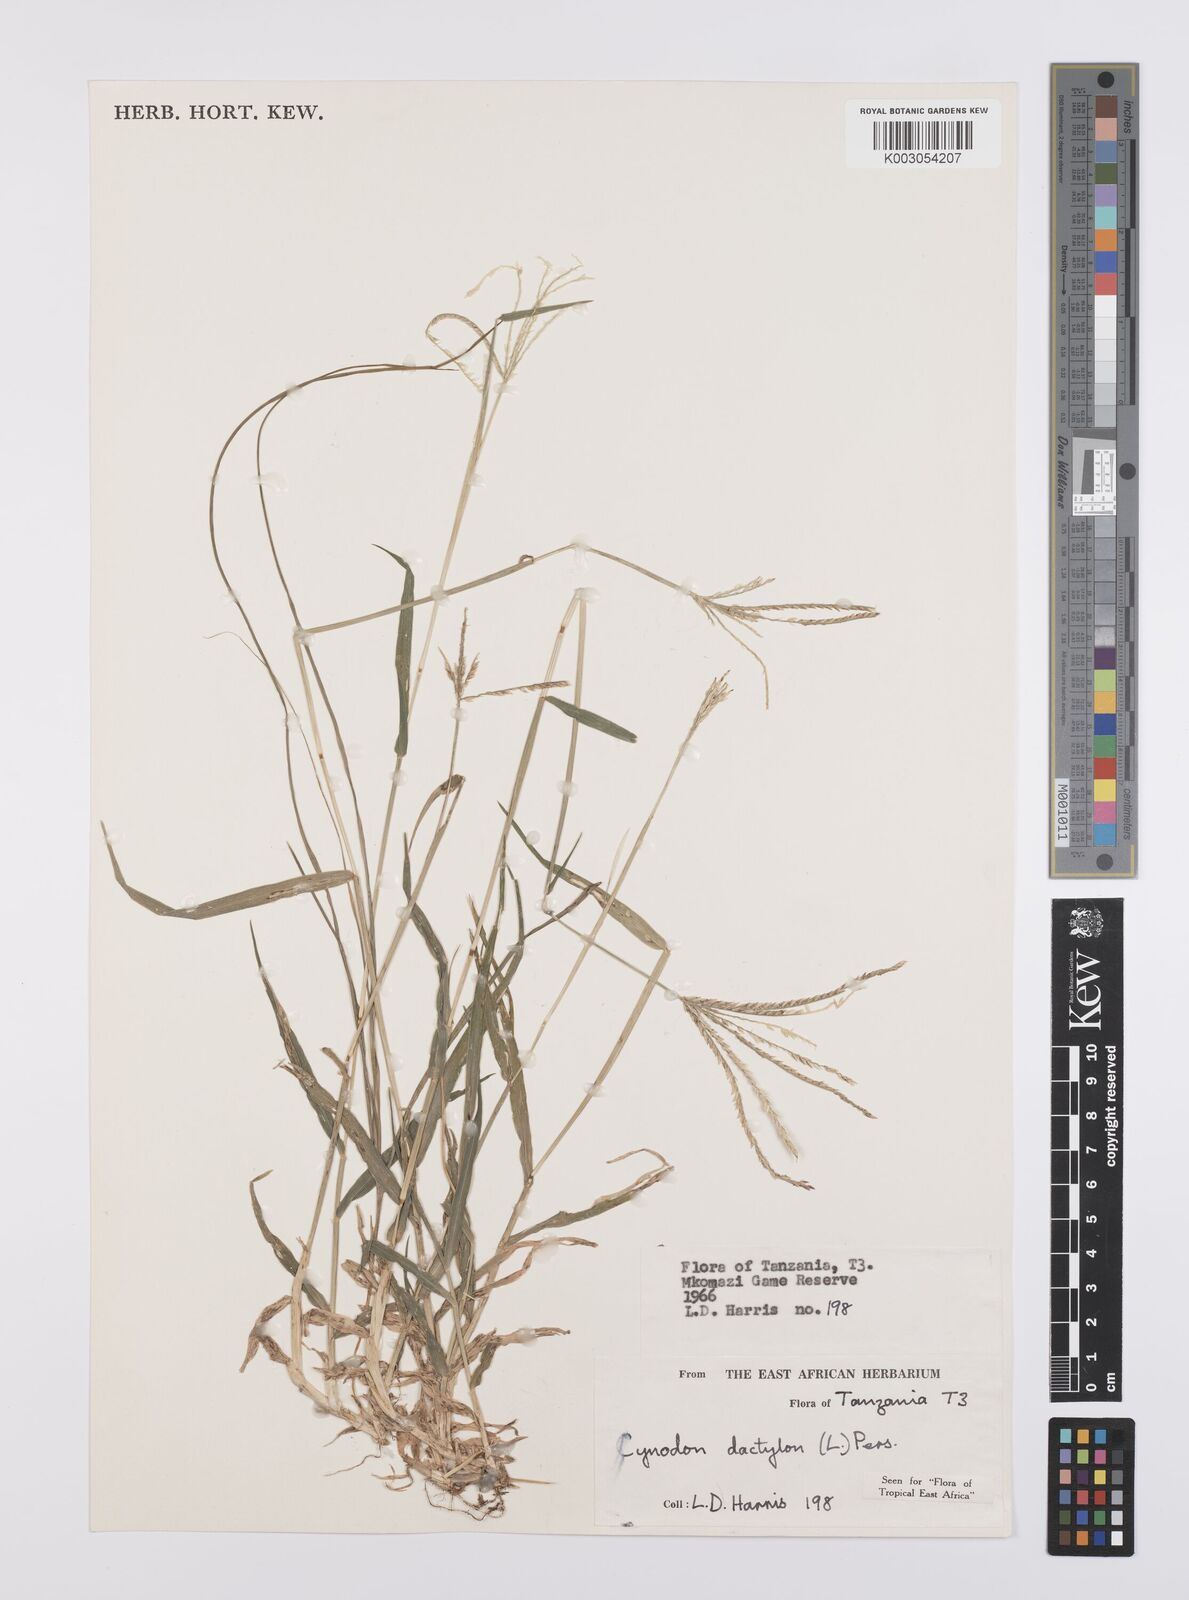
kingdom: Plantae
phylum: Tracheophyta
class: Liliopsida
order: Poales
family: Poaceae
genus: Cynodon
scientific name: Cynodon dactylon
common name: Bermuda grass
